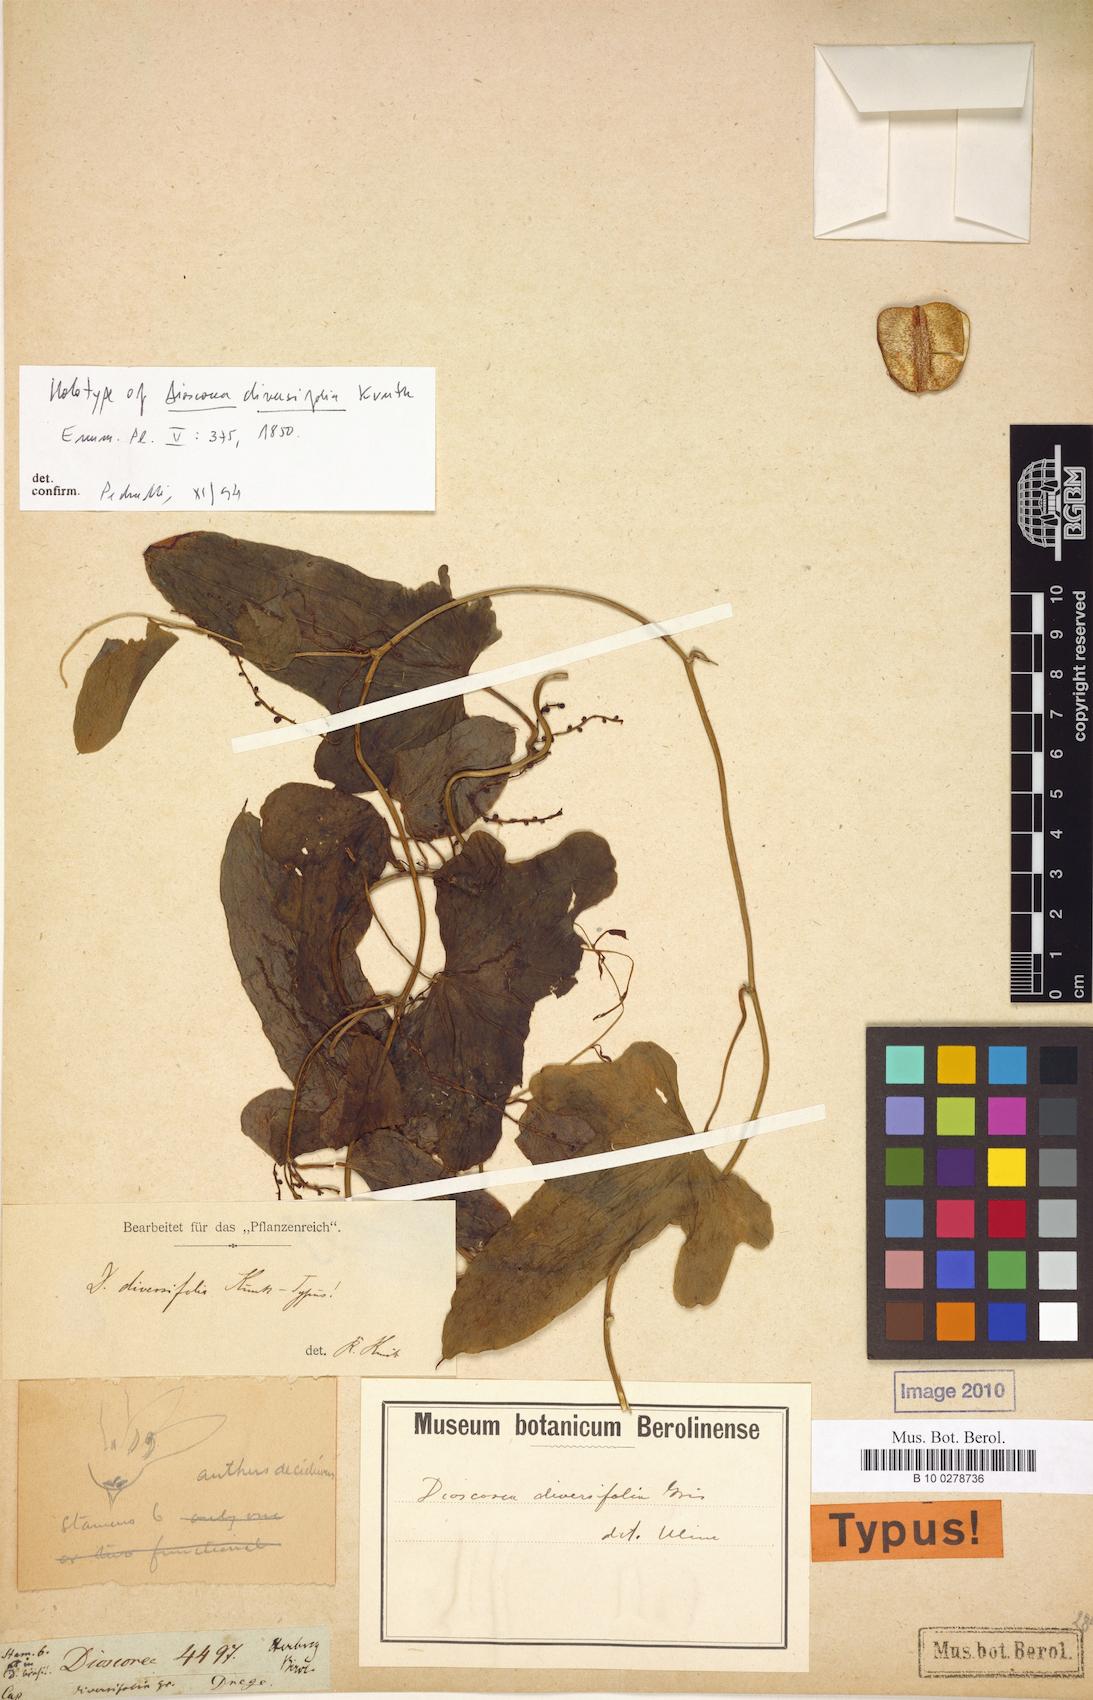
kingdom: Plantae
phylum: Tracheophyta
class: Liliopsida
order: Dioscoreales
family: Dioscoreaceae
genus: Dioscorea
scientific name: Dioscorea diversifolia
